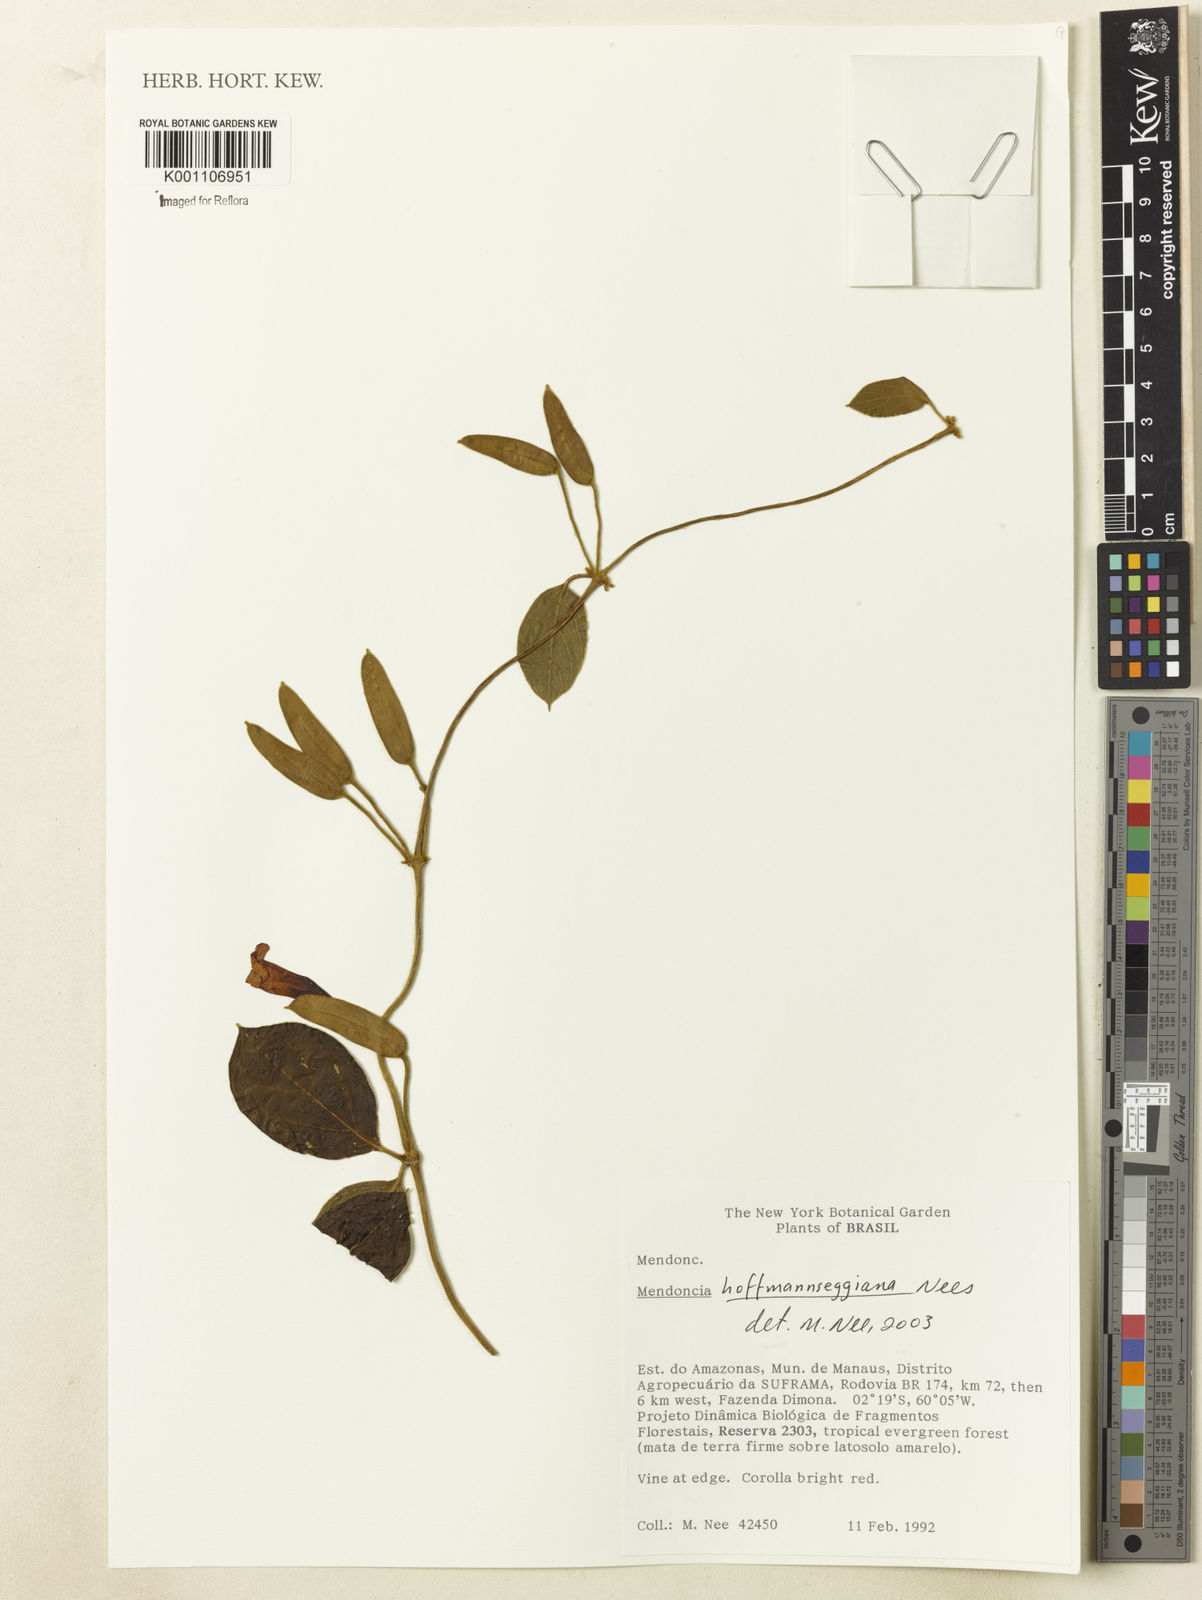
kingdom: Plantae
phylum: Tracheophyta
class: Magnoliopsida
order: Lamiales
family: Acanthaceae
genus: Mendoncia
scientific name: Mendoncia hoffmannseggiana
